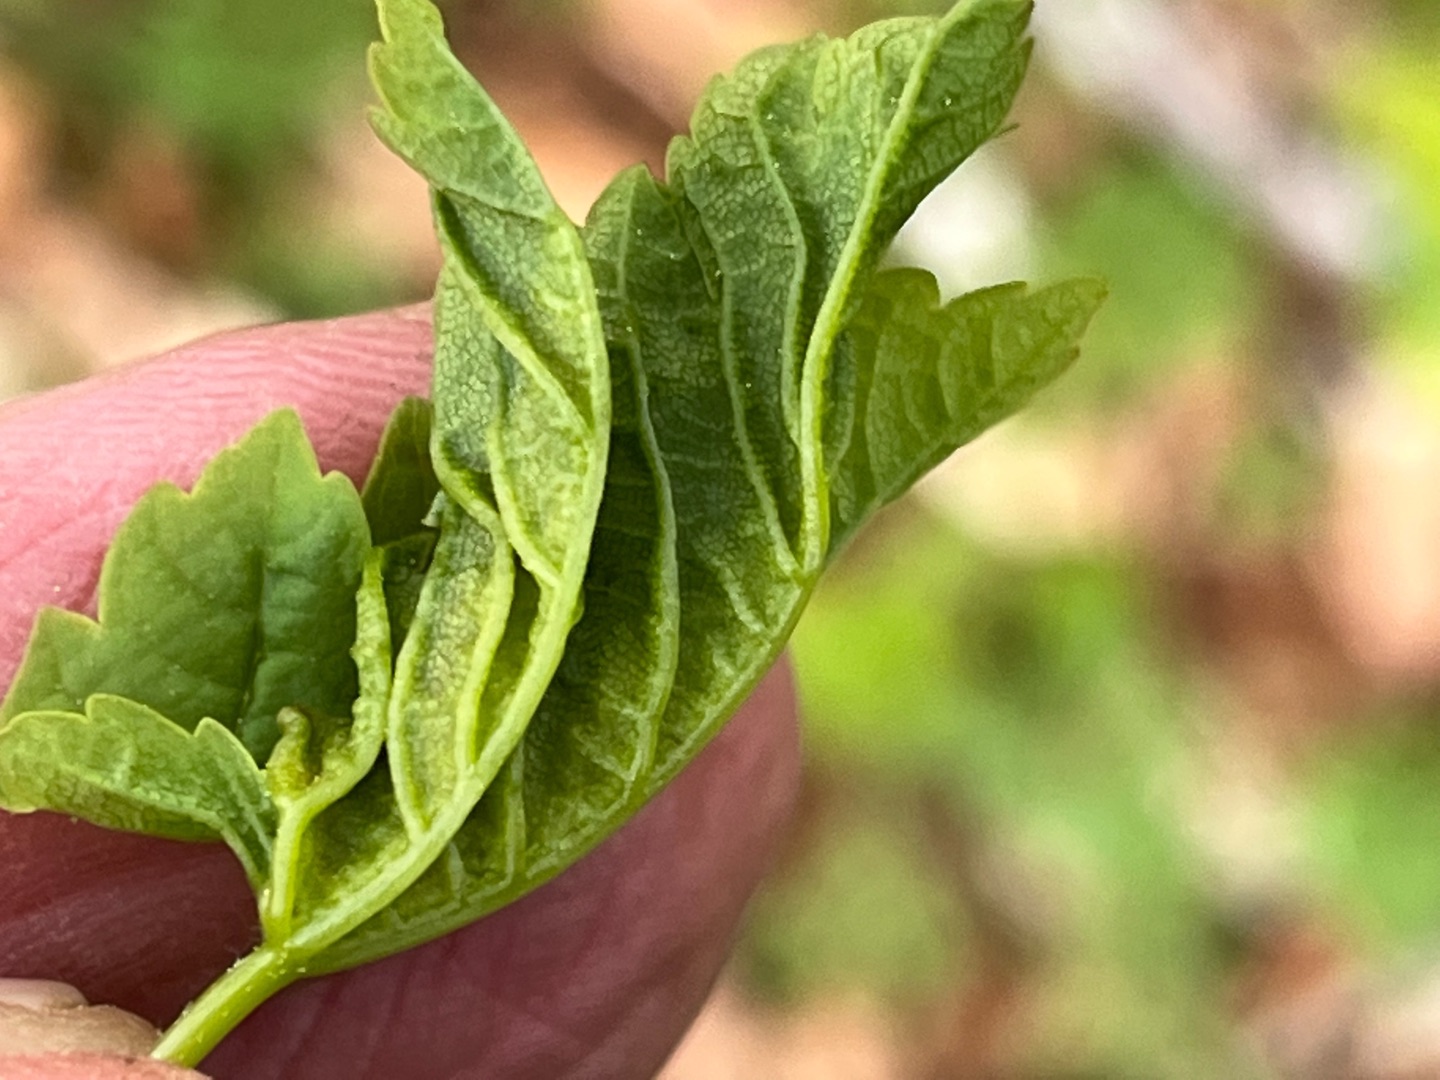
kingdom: Animalia
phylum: Arthropoda
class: Insecta
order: Diptera
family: Cecidomyiidae
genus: Dasineura
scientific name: Dasineura irregularis
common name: Ahornkrusegalmyg
